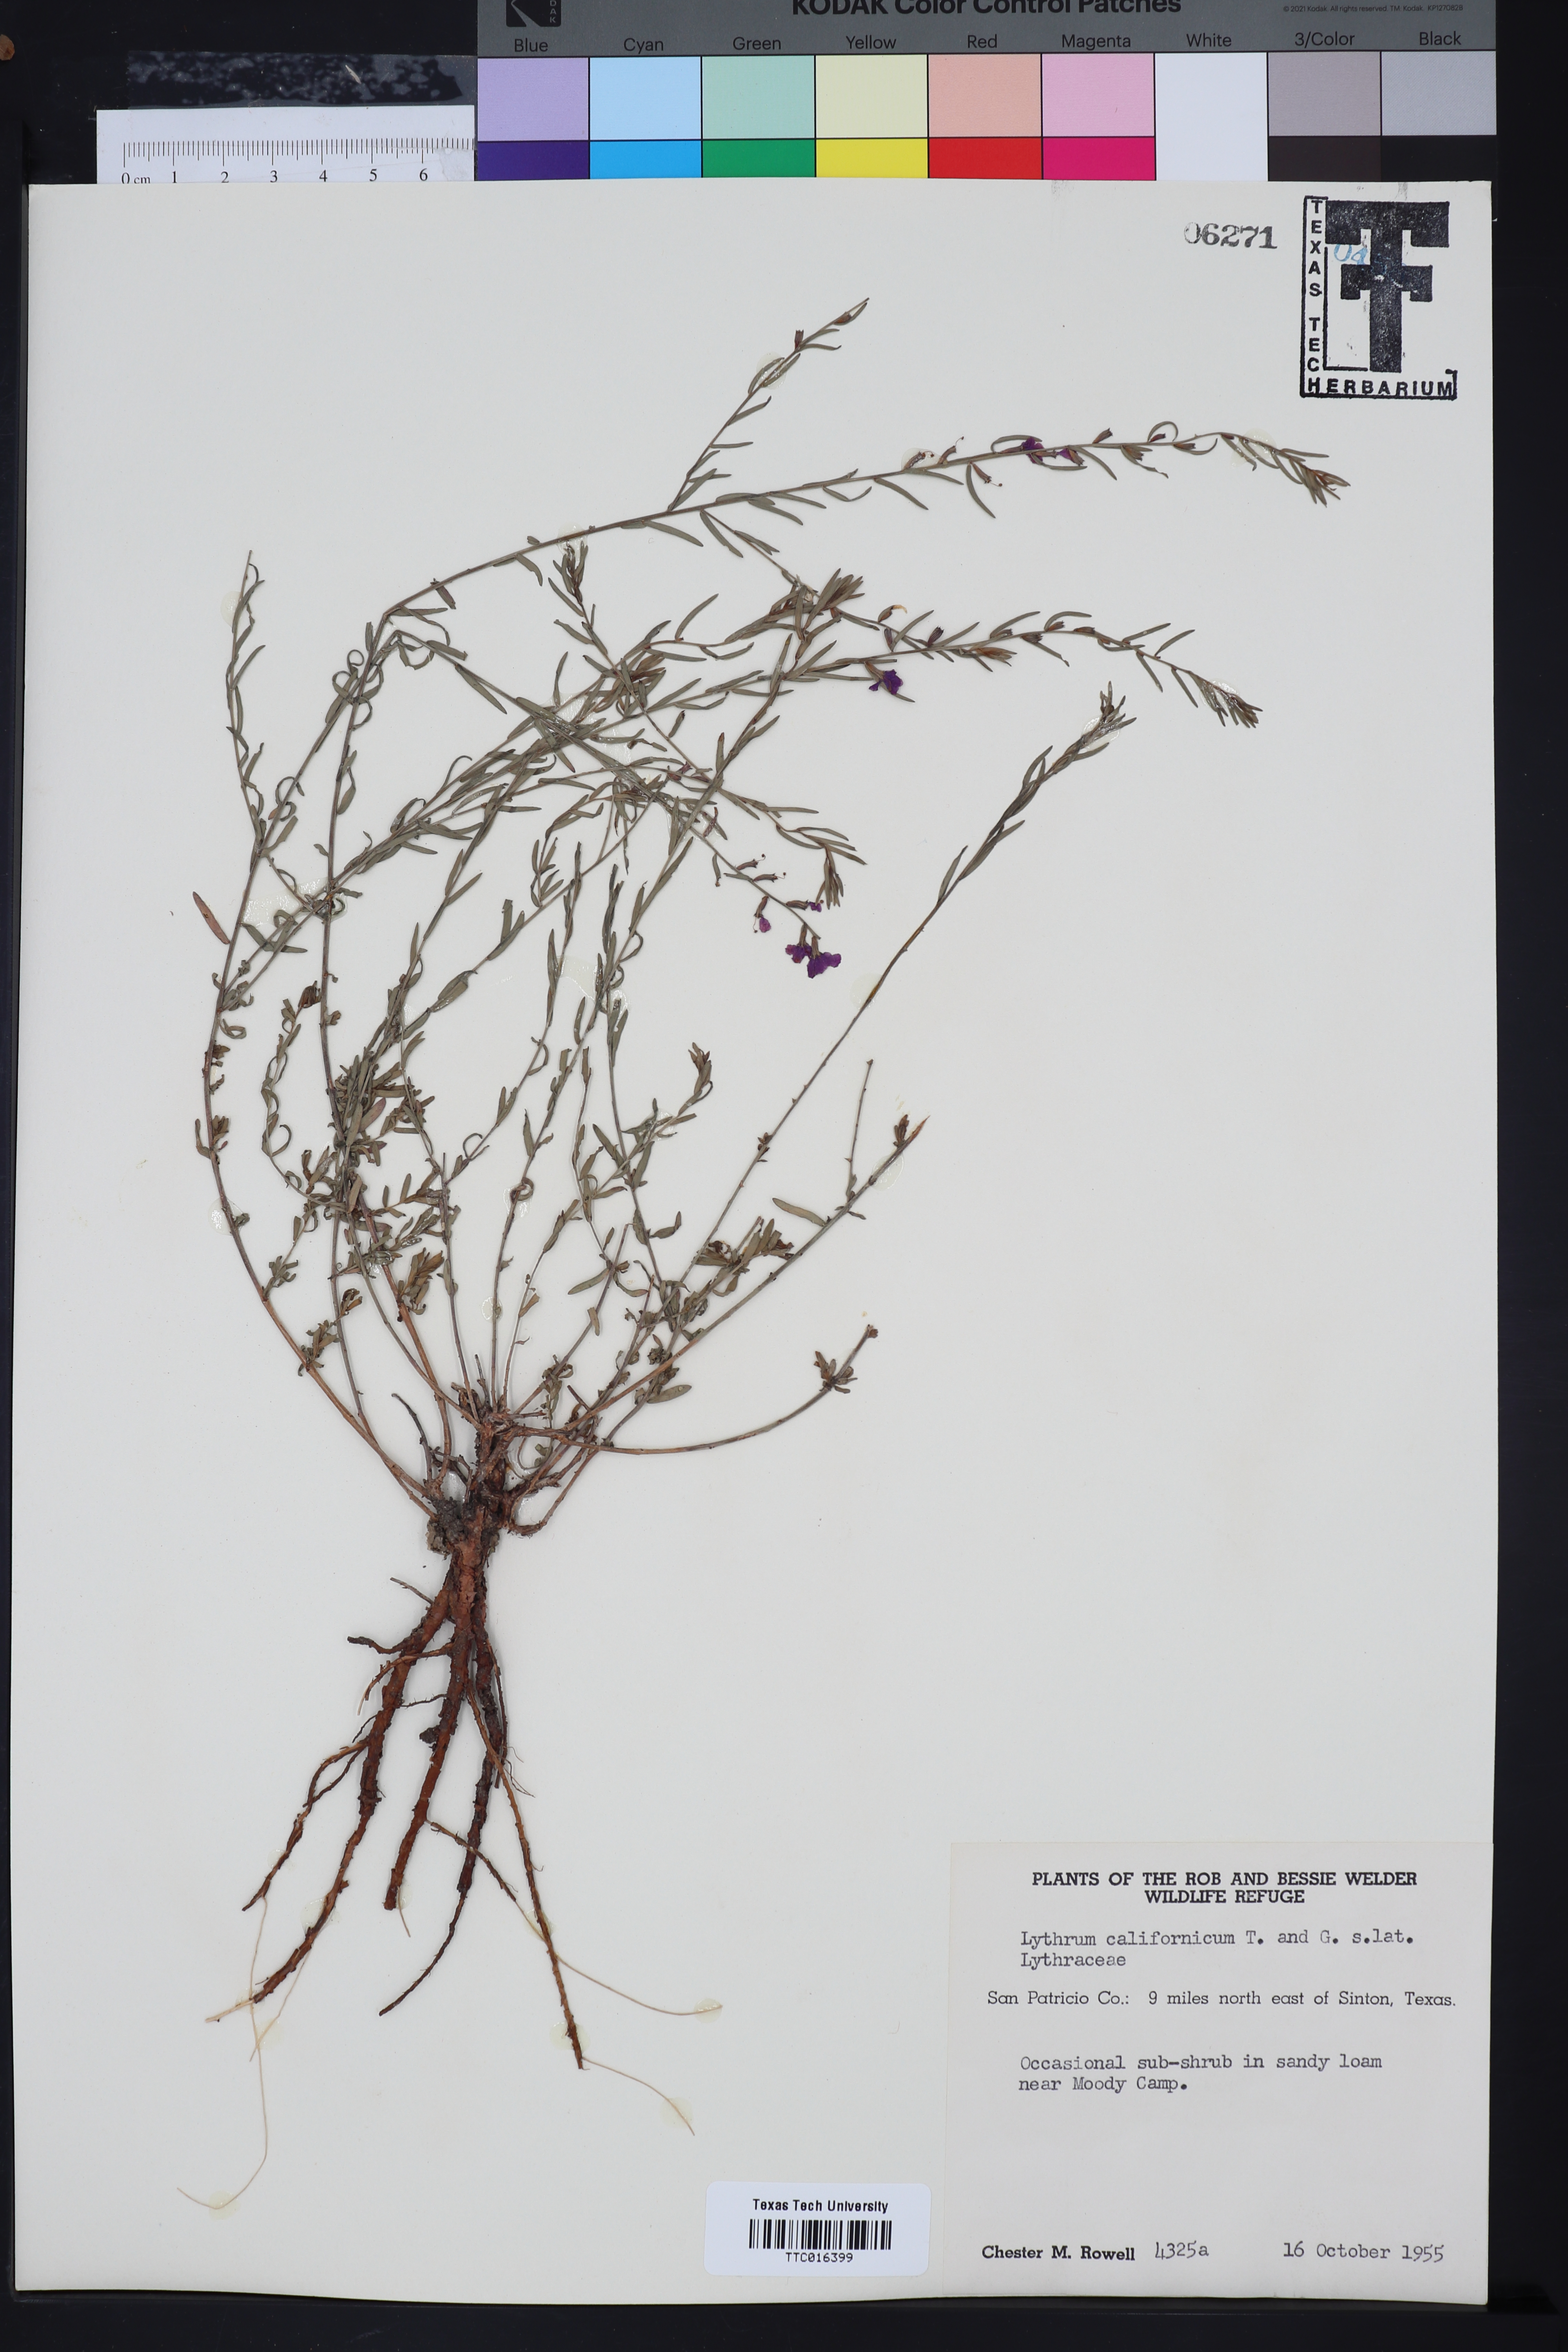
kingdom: Plantae
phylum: Tracheophyta
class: Magnoliopsida
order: Myrtales
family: Lythraceae
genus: Lythrum
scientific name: Lythrum californicum
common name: California loosestrife
